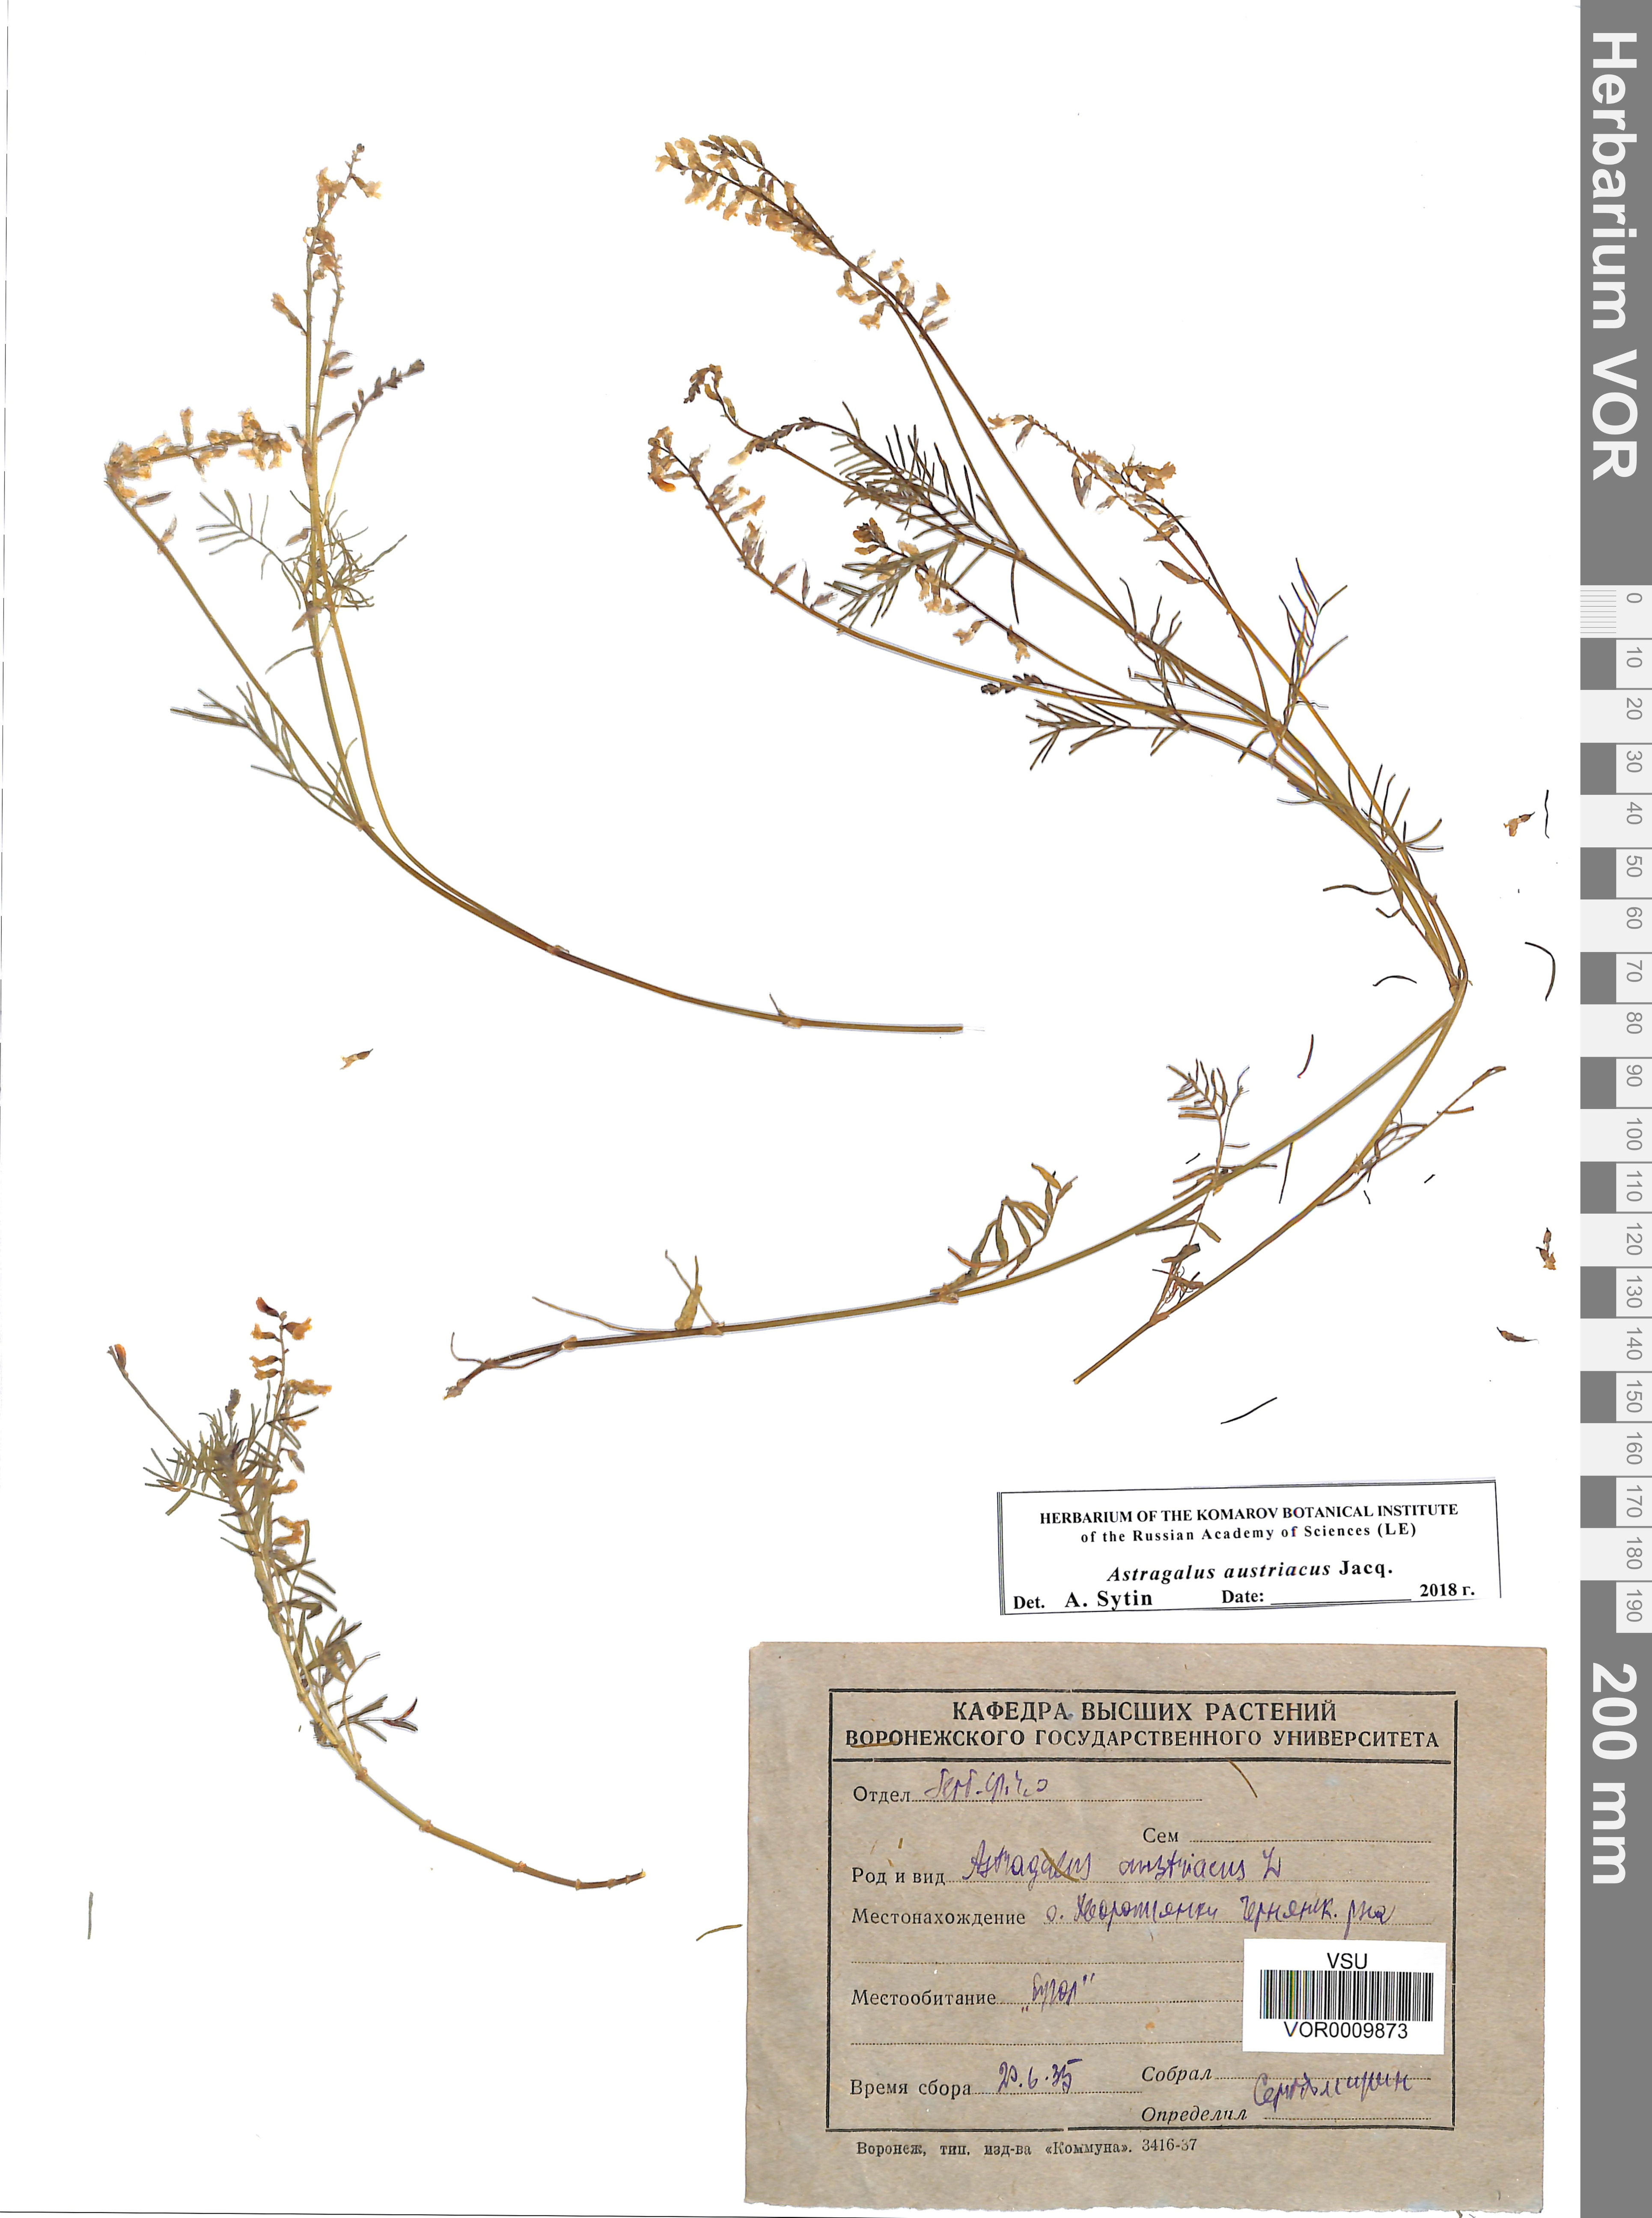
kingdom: Plantae
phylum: Tracheophyta
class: Magnoliopsida
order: Fabales
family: Fabaceae
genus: Astragalus
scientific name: Astragalus austriacus
